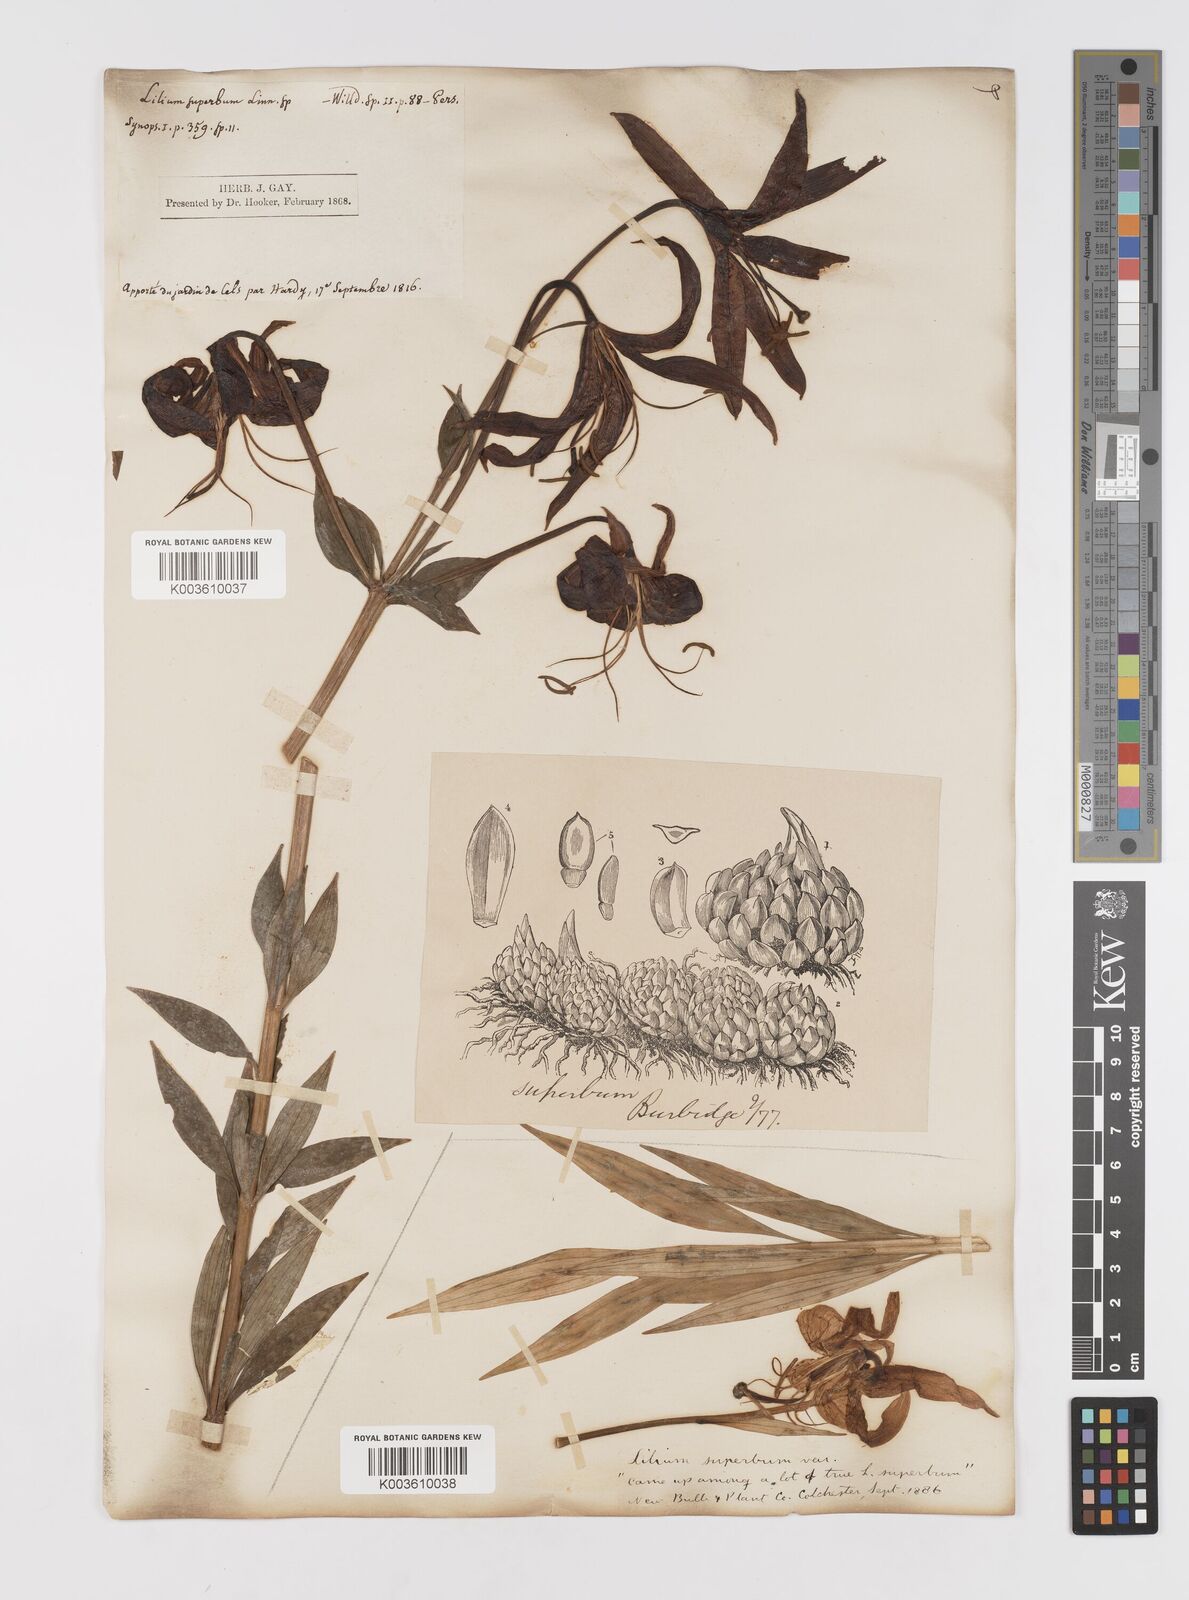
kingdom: Plantae
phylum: Tracheophyta
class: Liliopsida
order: Liliales
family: Liliaceae
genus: Lilium
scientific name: Lilium superbum
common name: American turk's-cap lily
